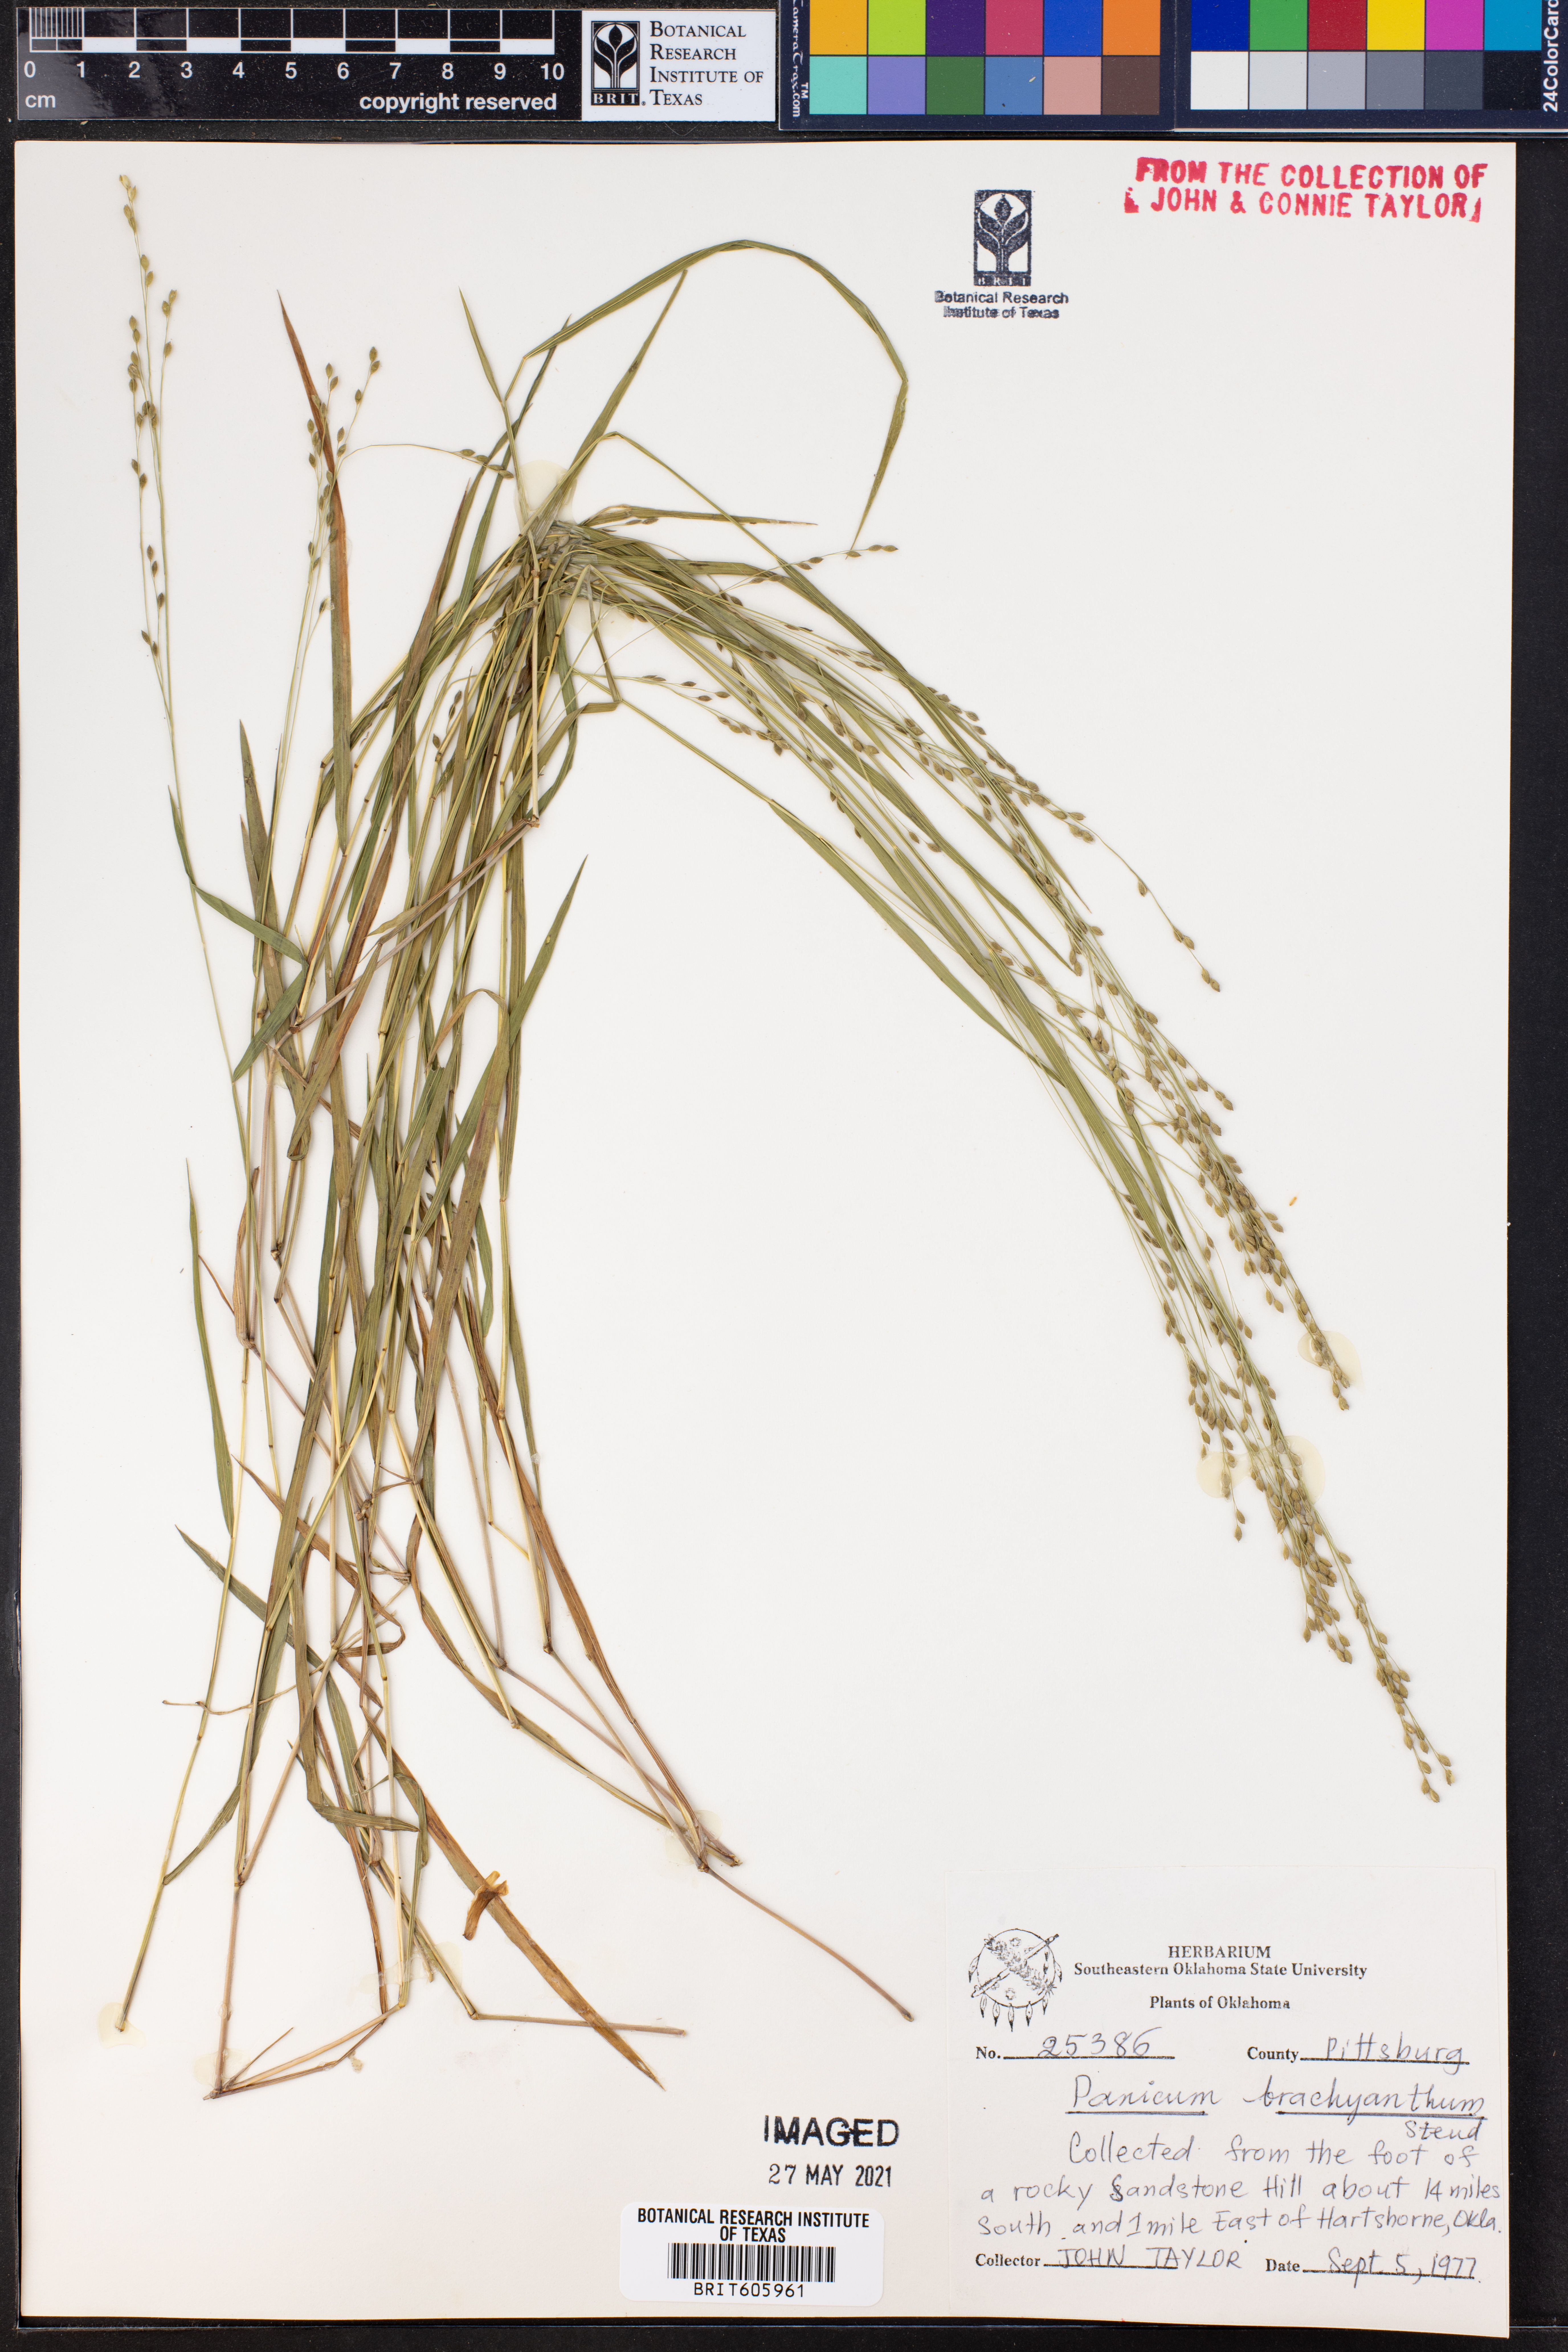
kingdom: Plantae
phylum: Tracheophyta
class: Liliopsida
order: Poales
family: Poaceae
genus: Kellochloa
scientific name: Kellochloa brachyantha
